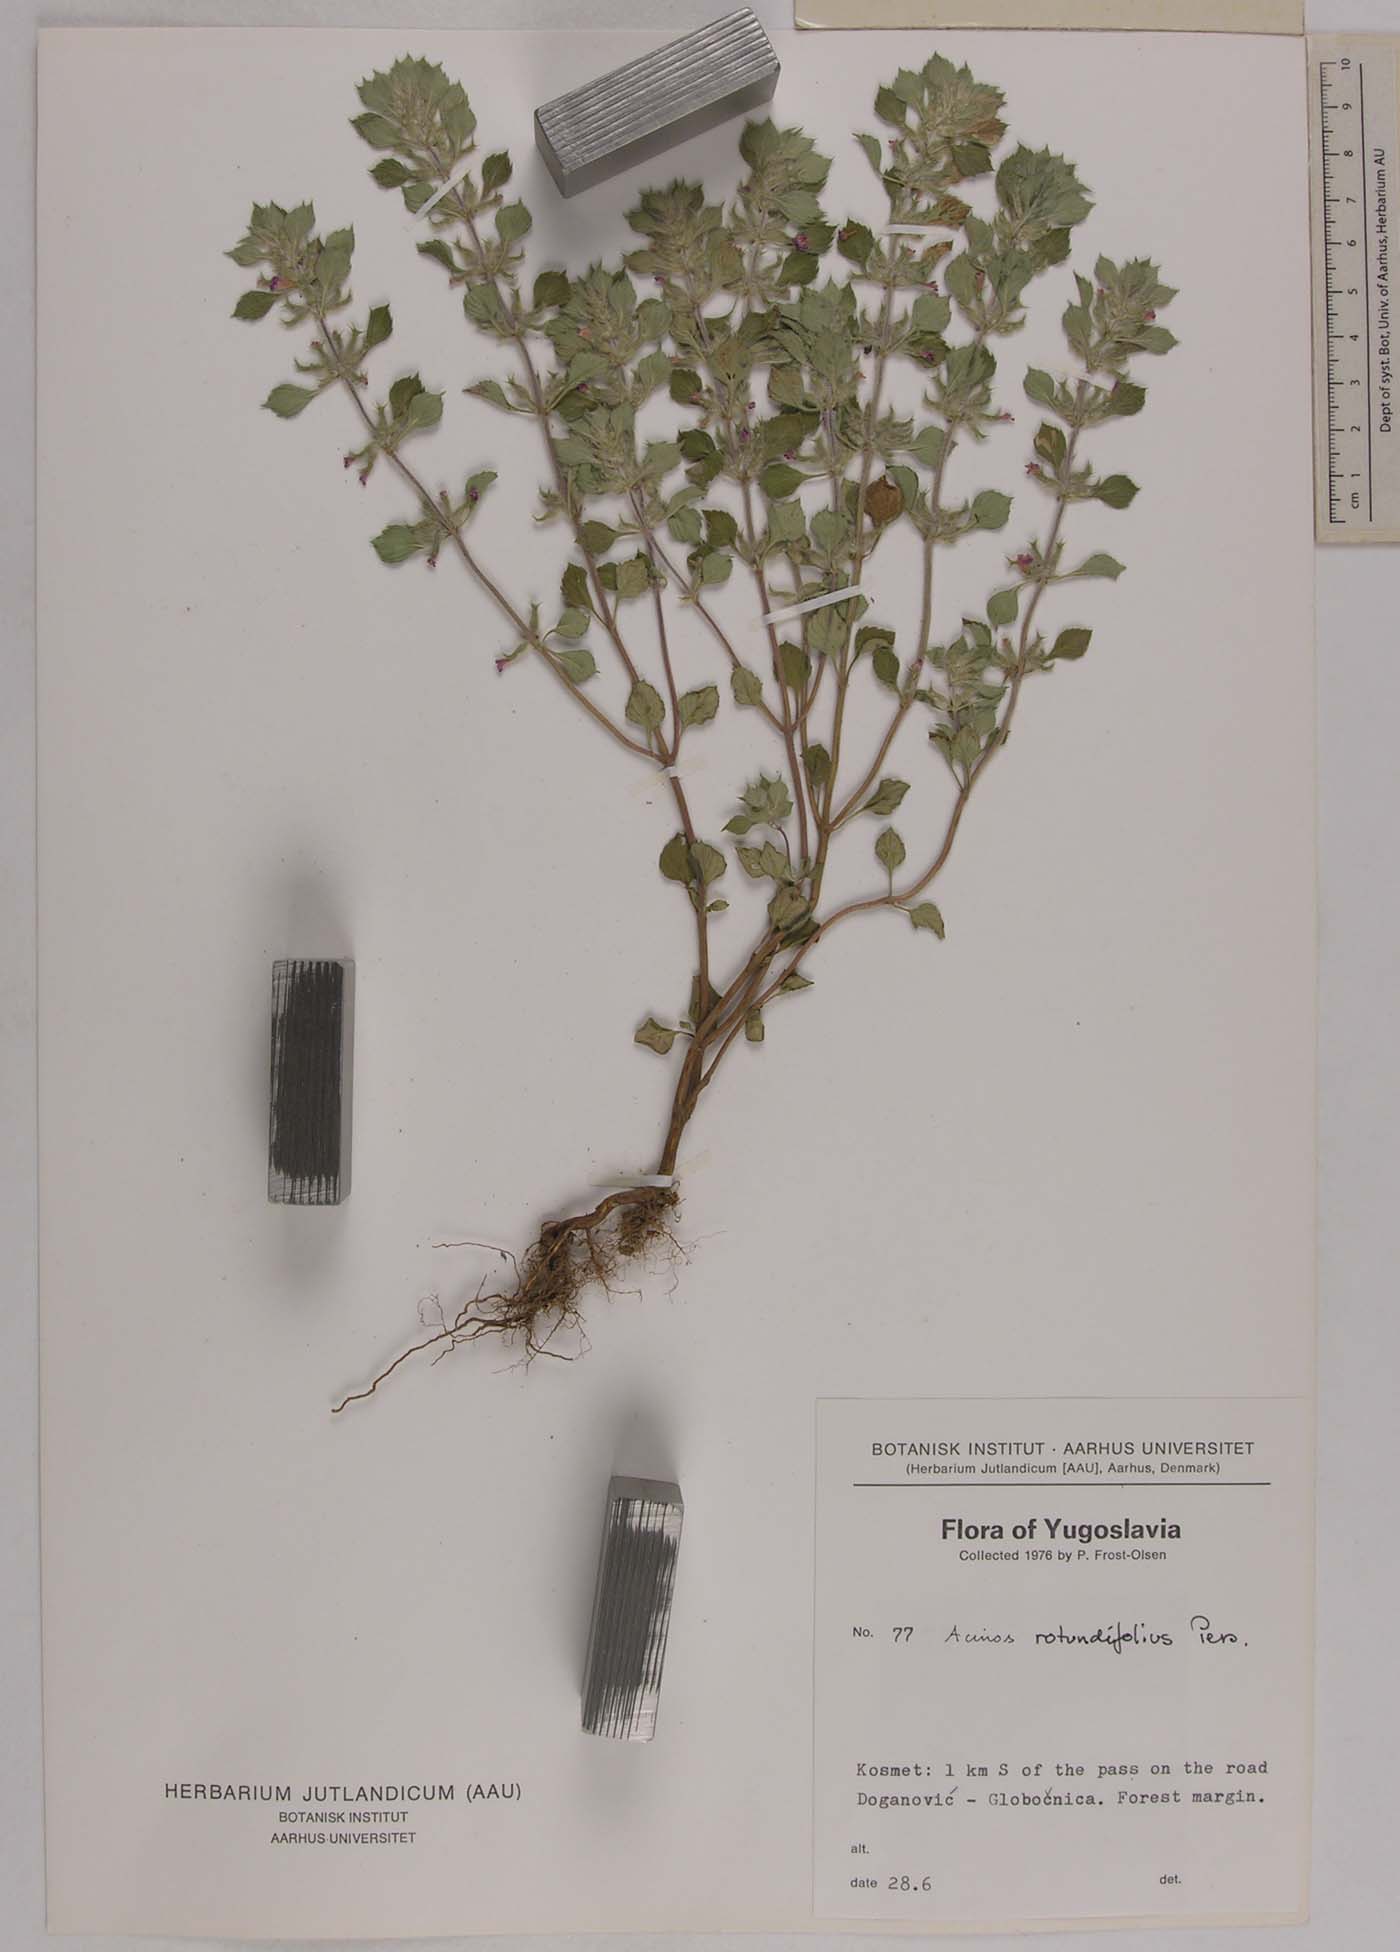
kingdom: Plantae
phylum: Tracheophyta
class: Magnoliopsida
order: Lamiales
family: Lamiaceae
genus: Clinopodium
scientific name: Clinopodium alpinum
